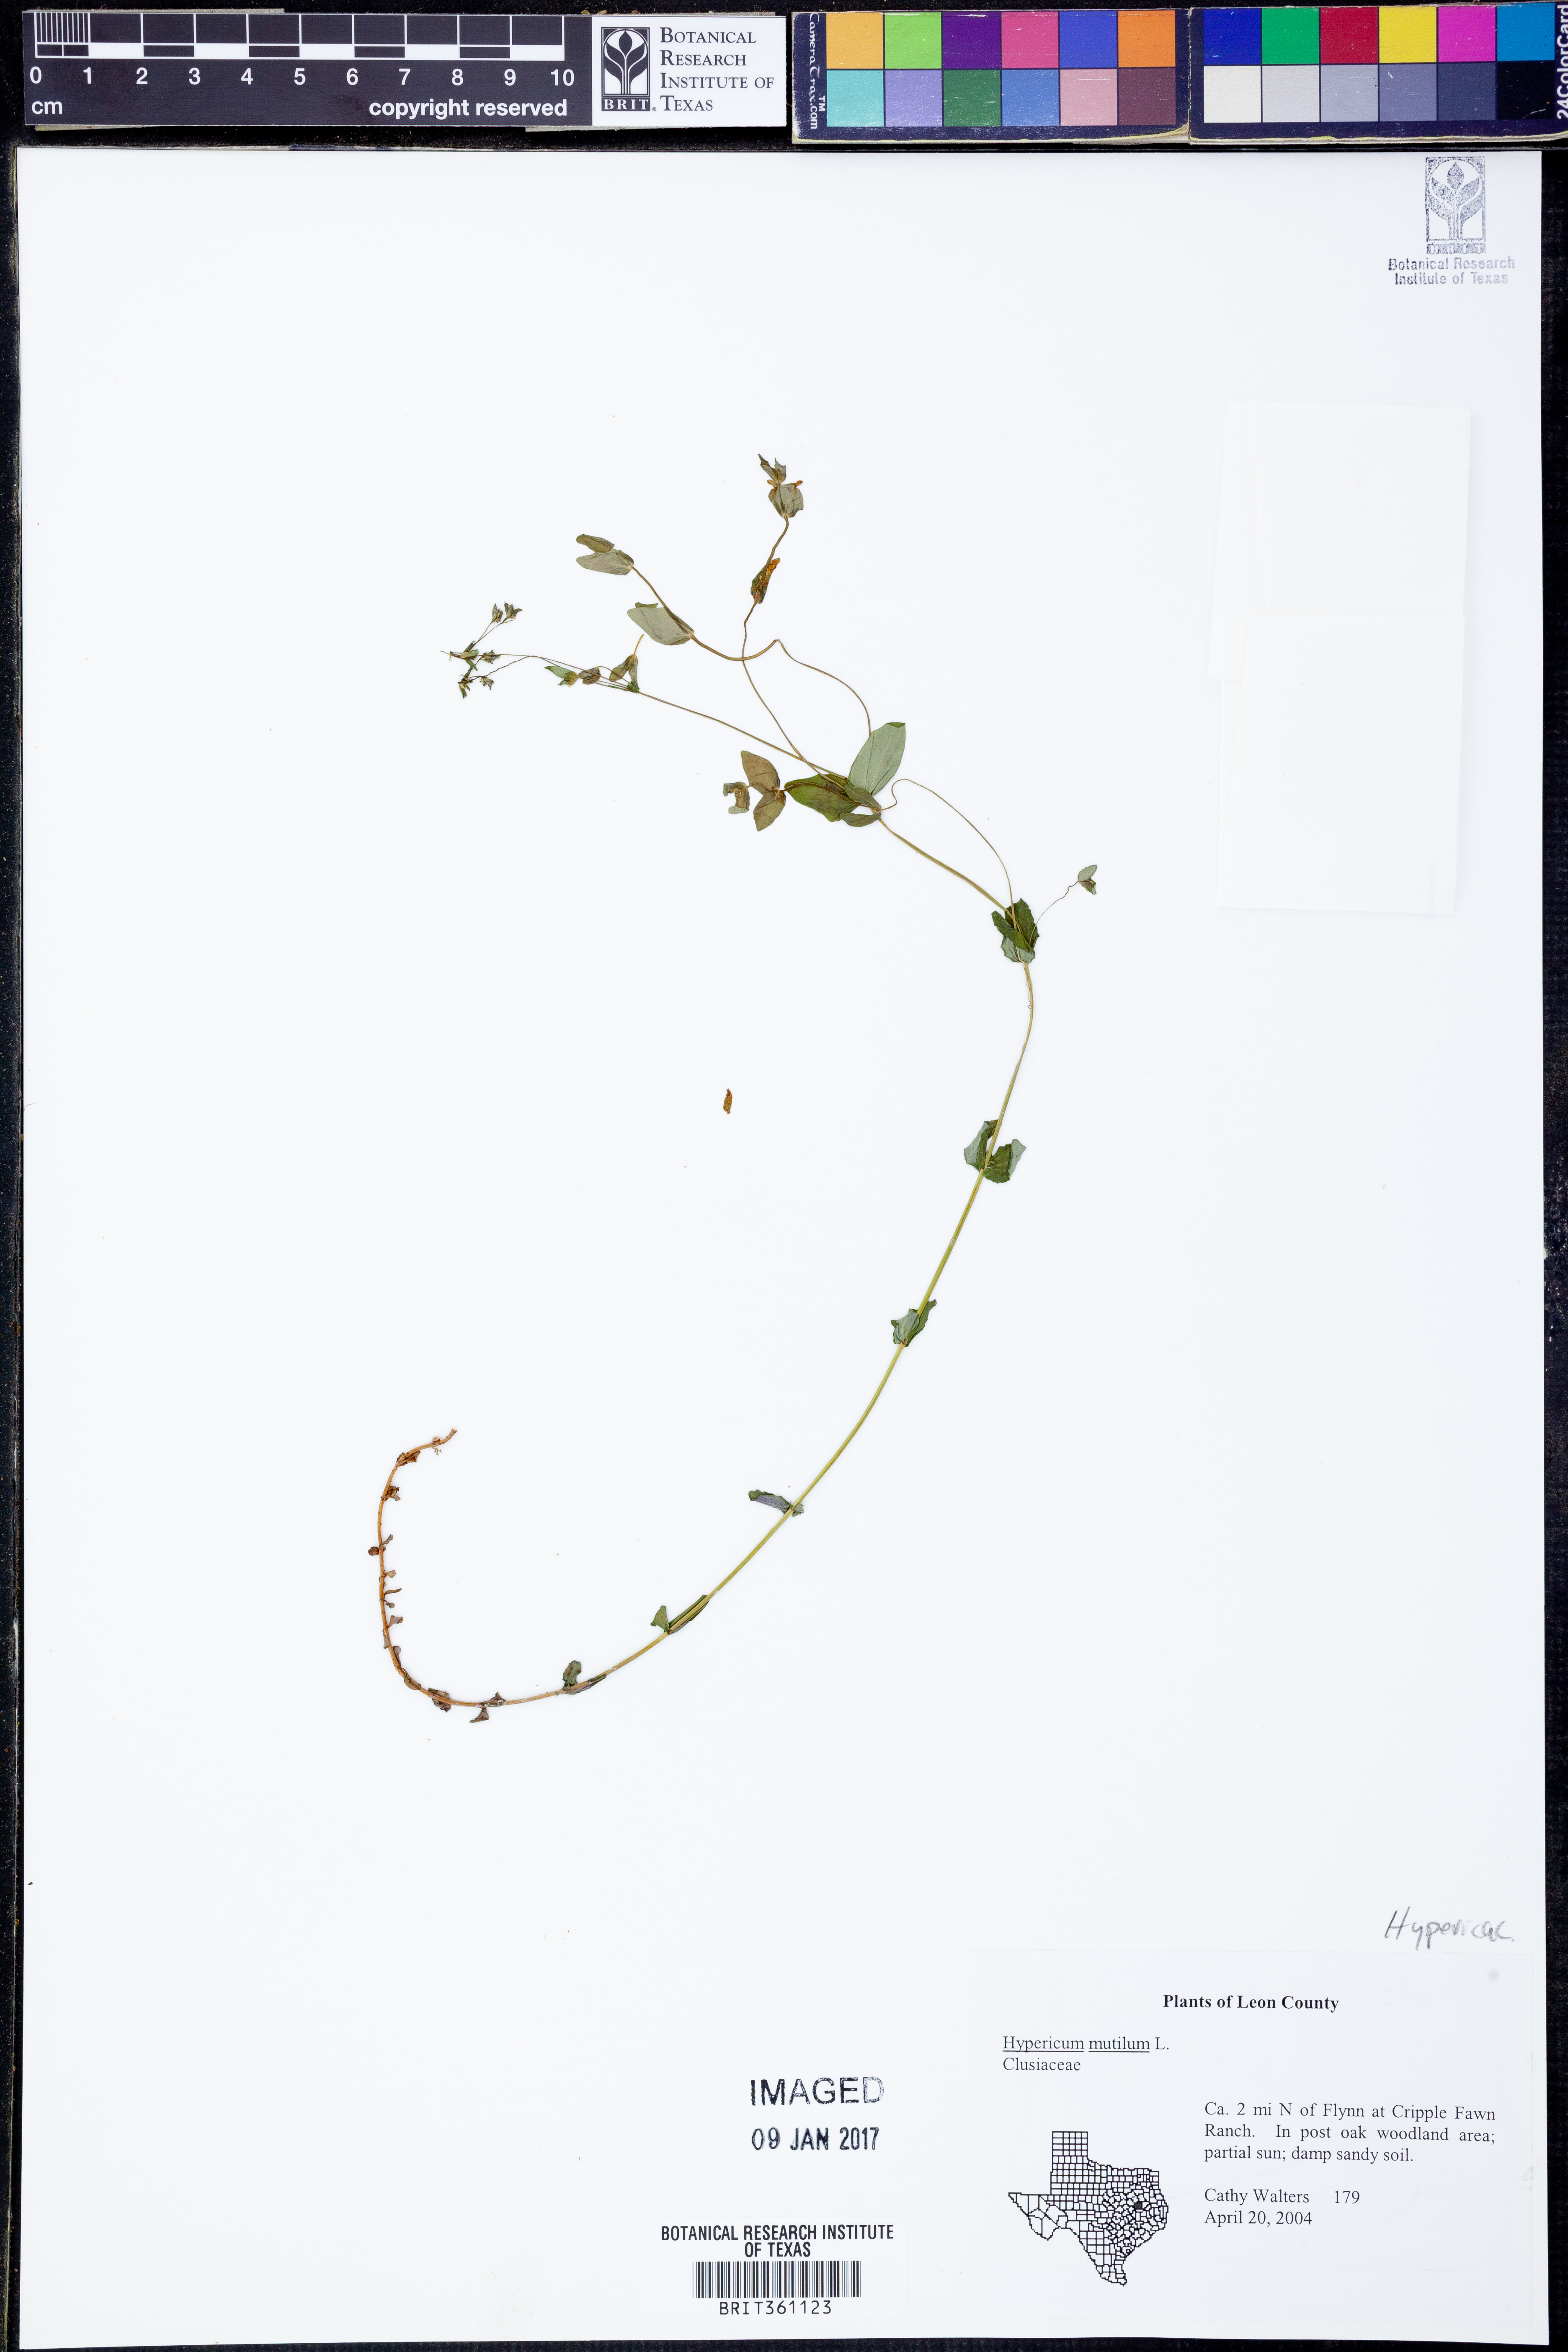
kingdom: Plantae
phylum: Tracheophyta
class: Magnoliopsida
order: Malpighiales
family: Hypericaceae
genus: Hypericum
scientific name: Hypericum mutilum
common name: Dwarf st. john's-wort
